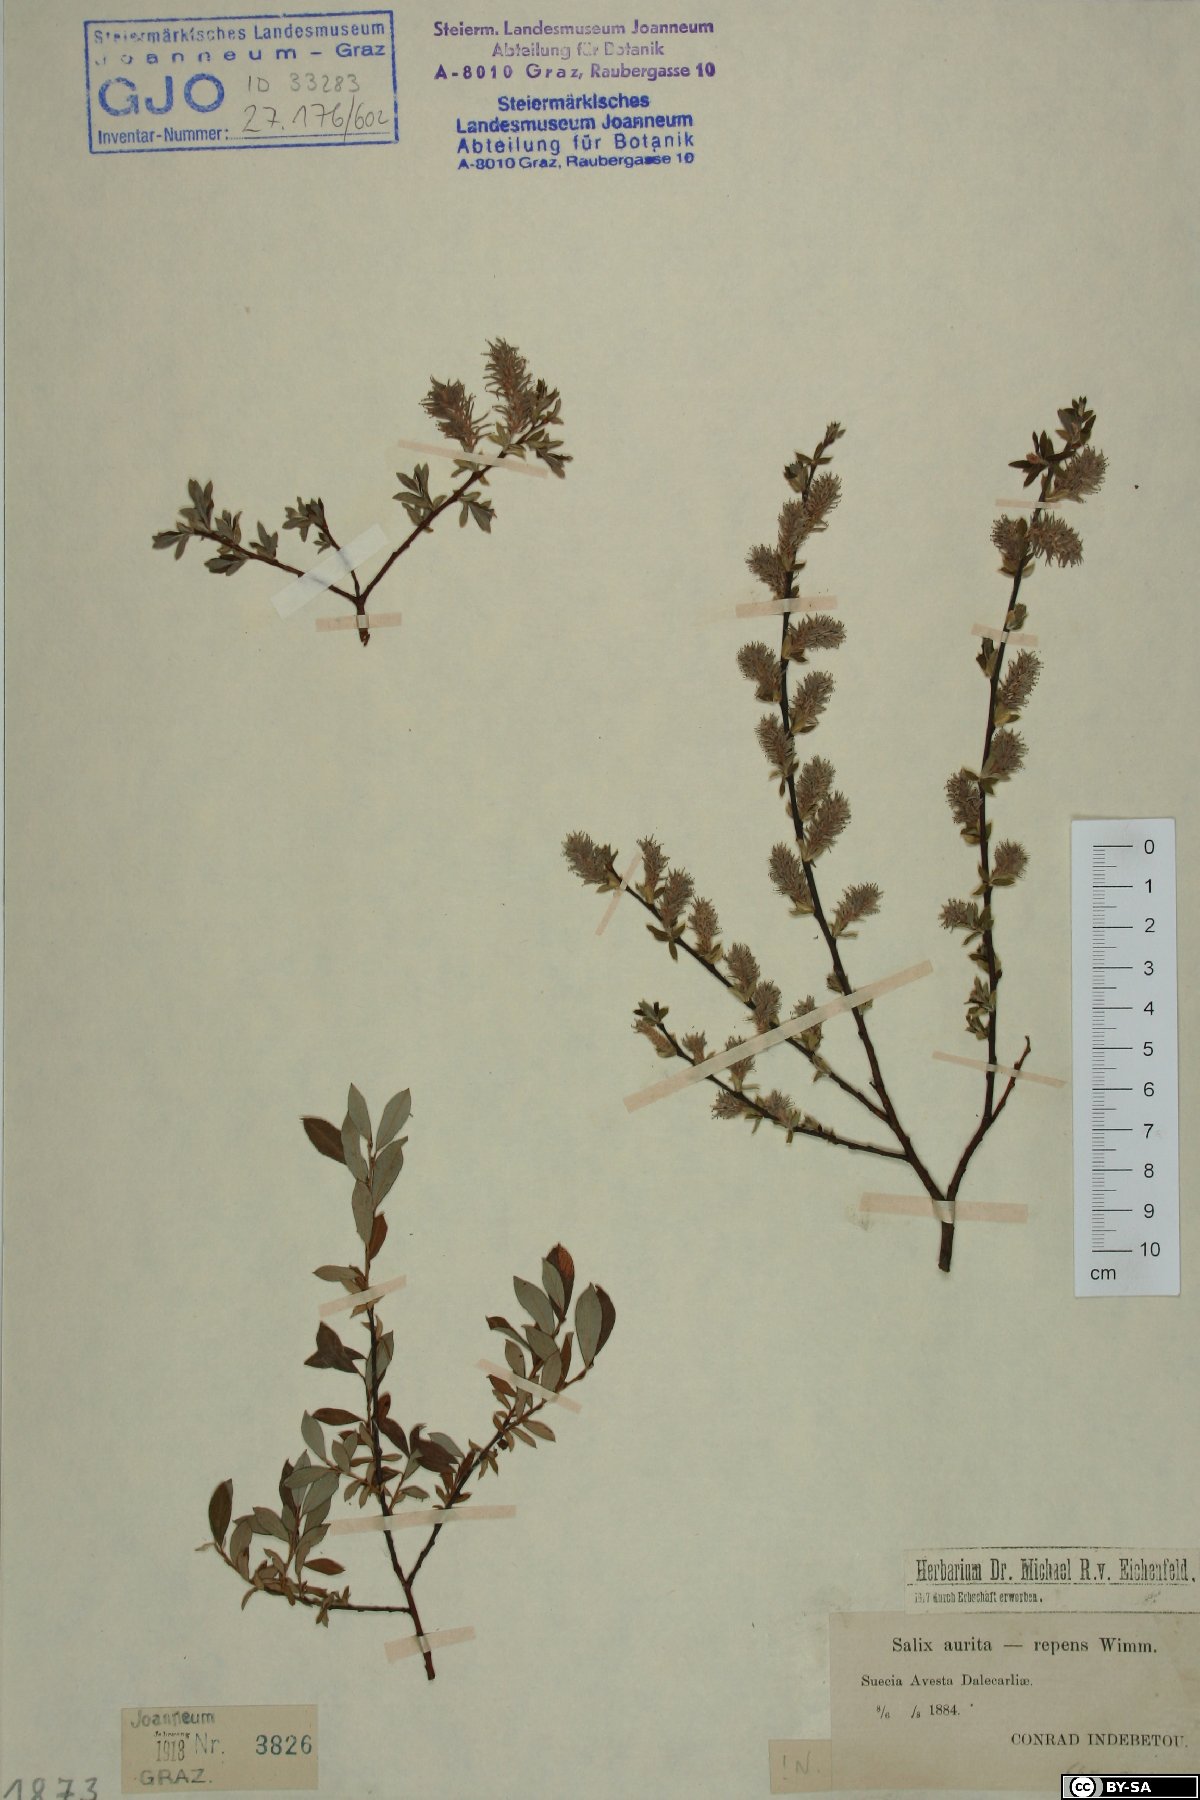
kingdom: Plantae
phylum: Tracheophyta
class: Magnoliopsida
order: Malpighiales
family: Salicaceae
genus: Salix
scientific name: Salix aurita
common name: Eared willow
